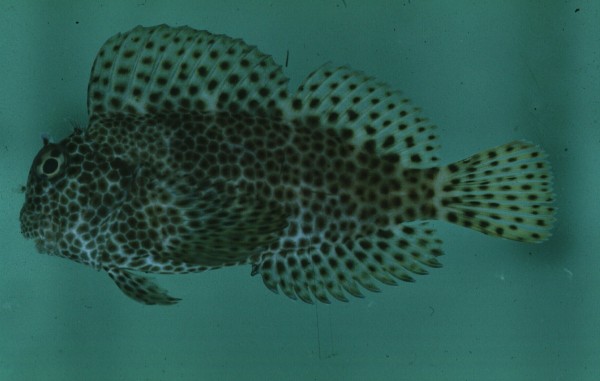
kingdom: Animalia
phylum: Chordata
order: Perciformes
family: Blenniidae
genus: Exallias
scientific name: Exallias brevis
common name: Leopard blenny
